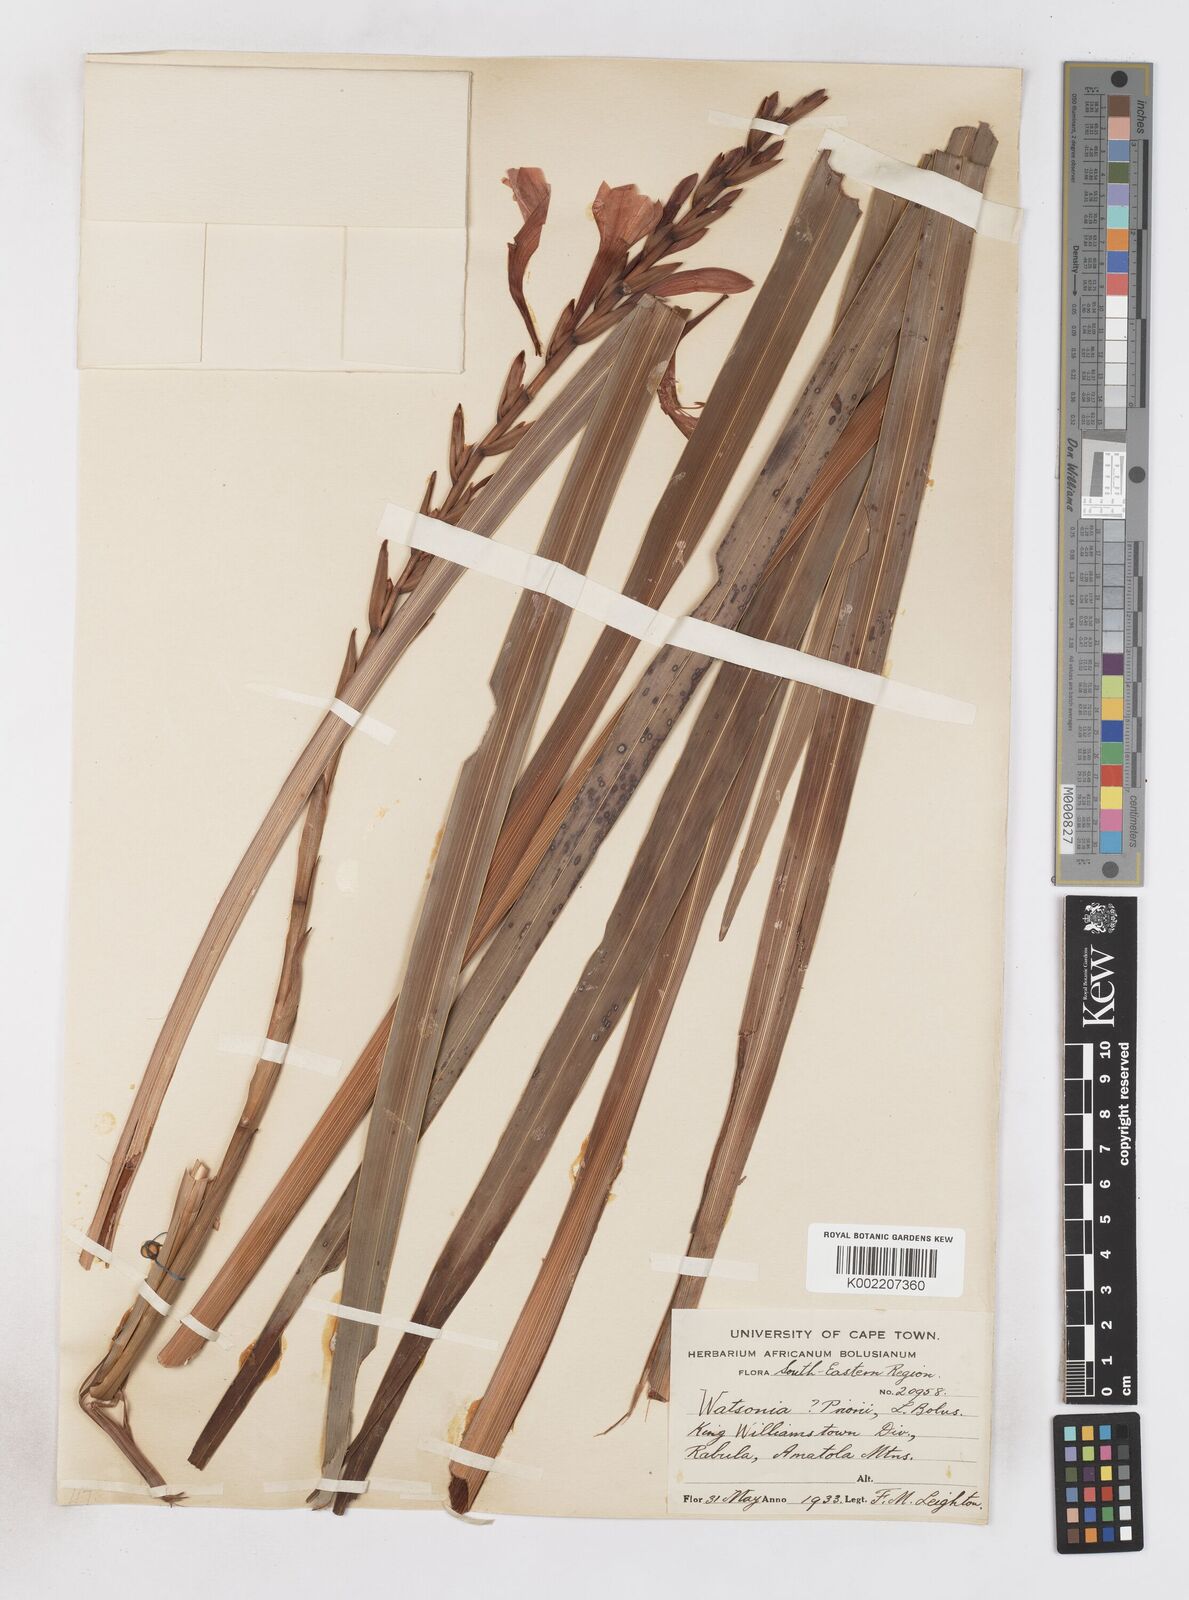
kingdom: Plantae
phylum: Tracheophyta
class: Liliopsida
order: Asparagales
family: Iridaceae
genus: Watsonia
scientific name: Watsonia pillansii
